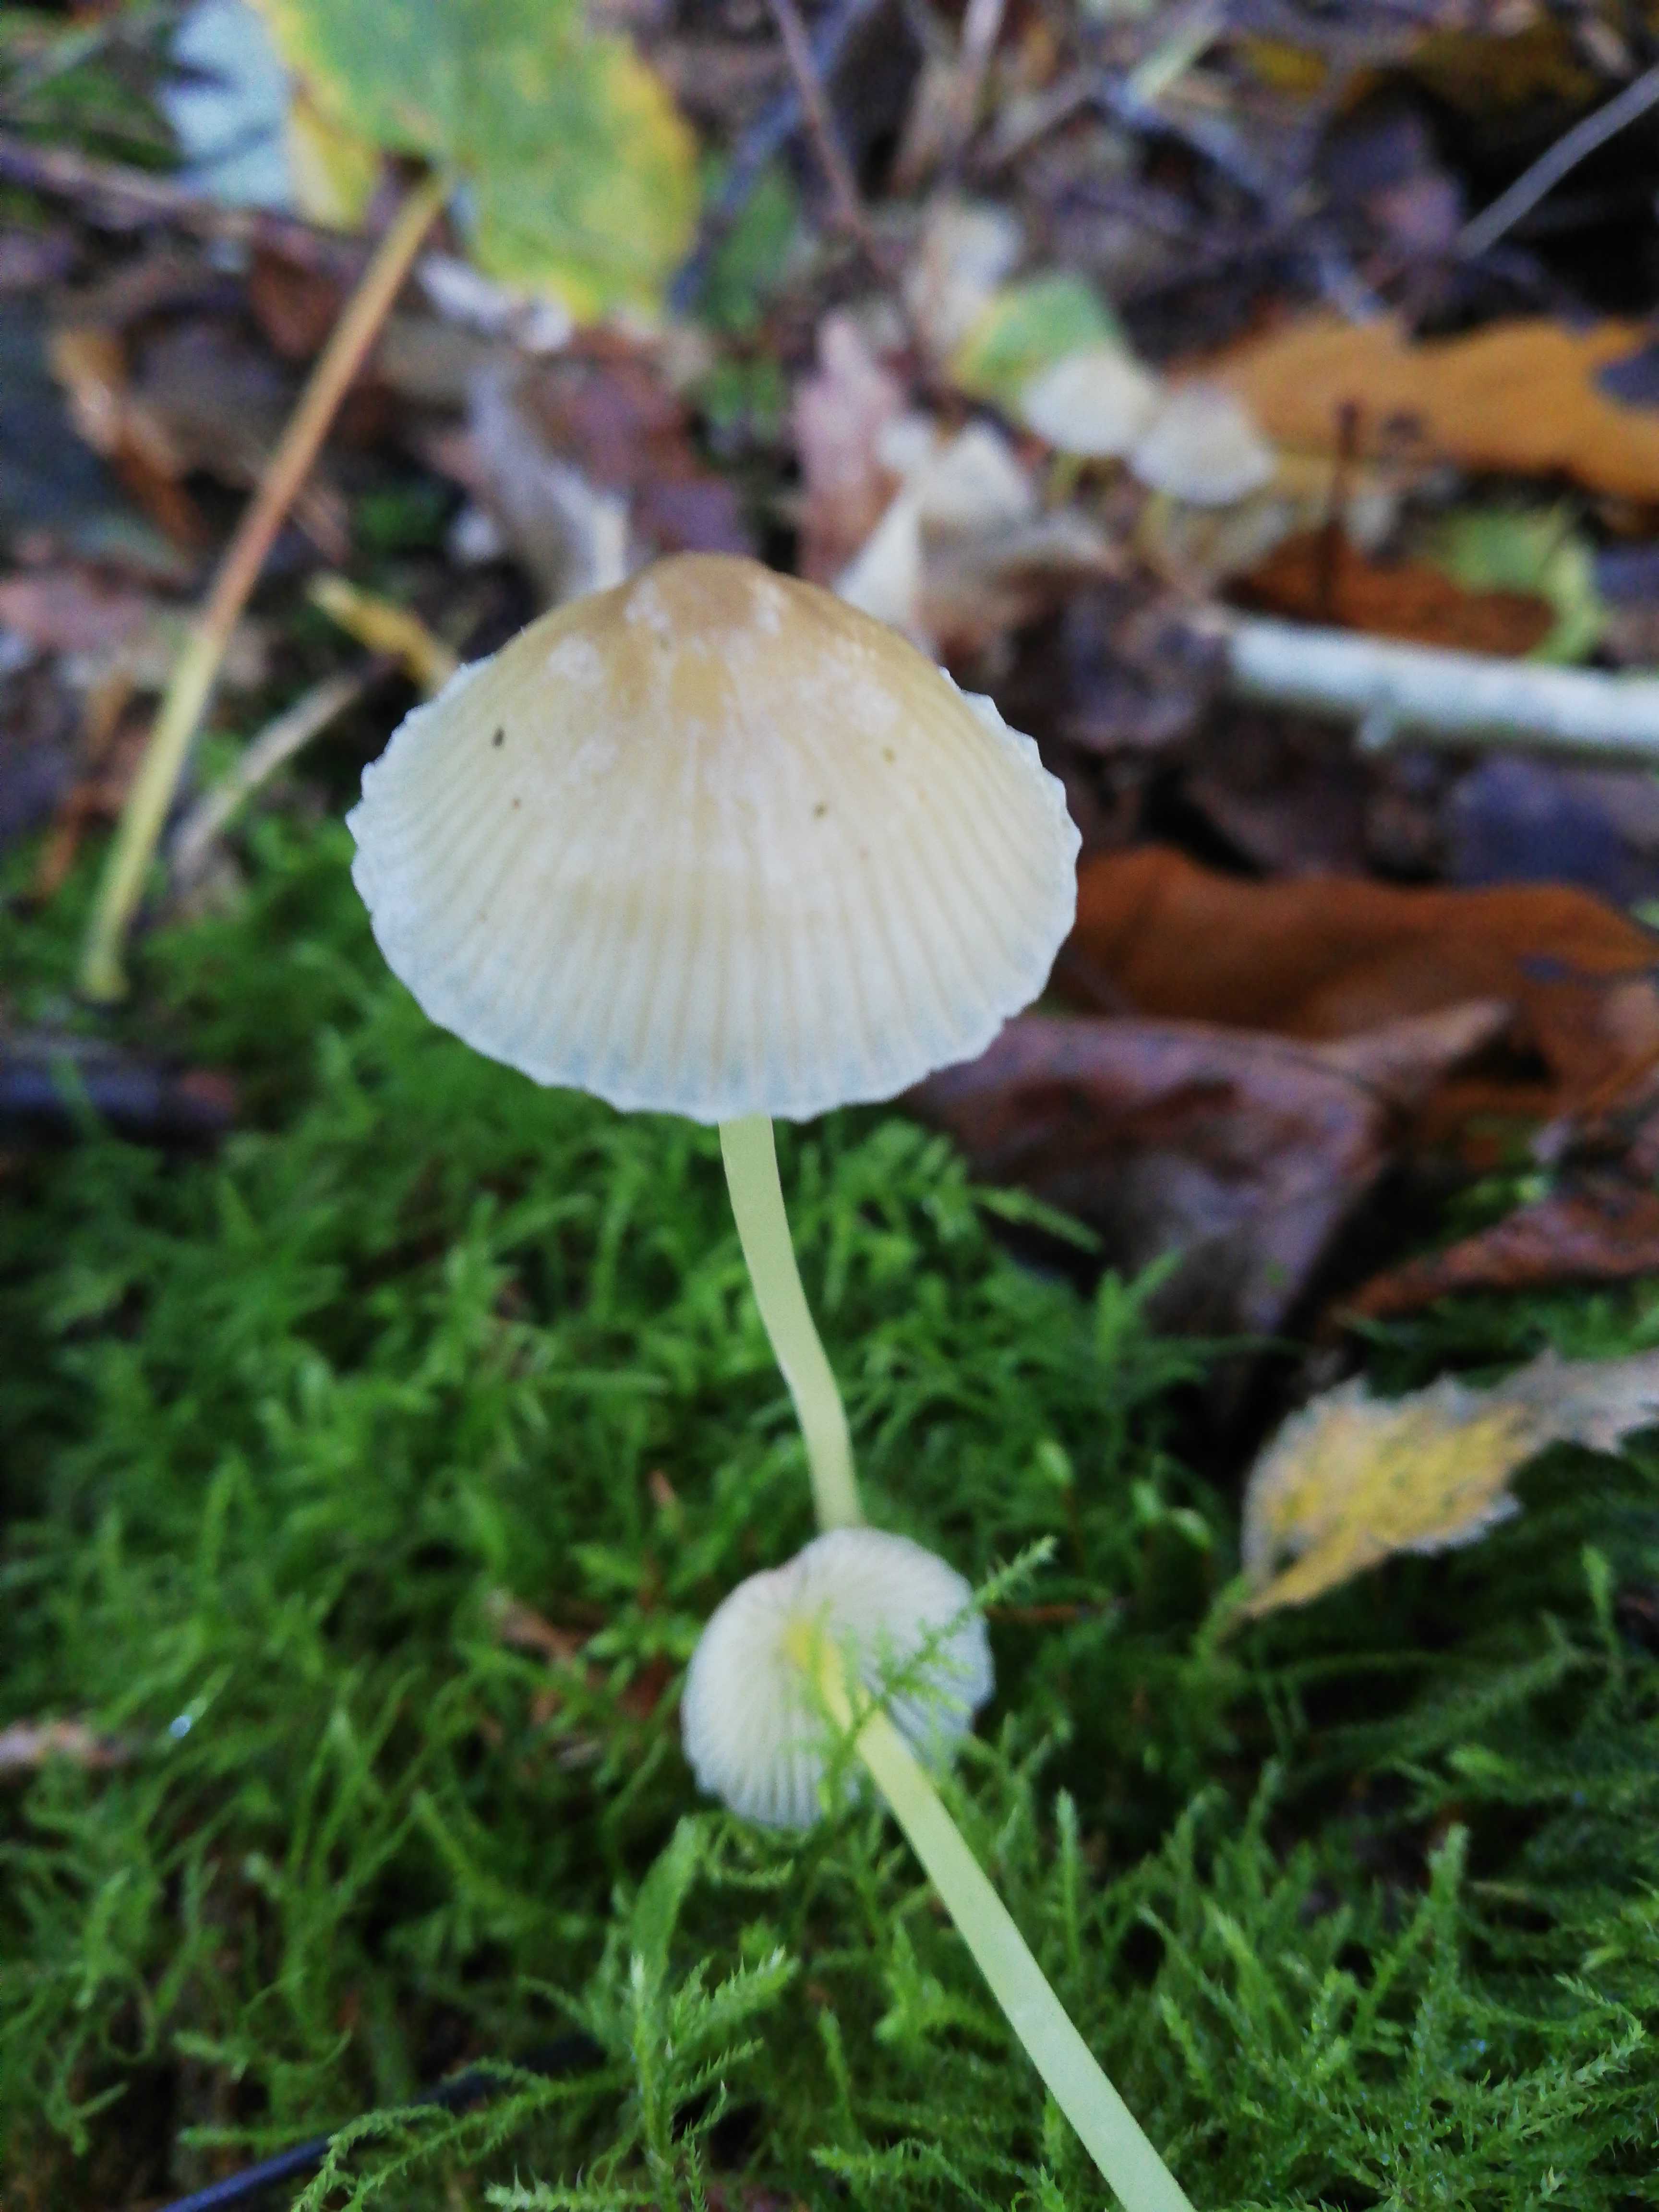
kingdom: Fungi
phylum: Basidiomycota
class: Agaricomycetes
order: Agaricales
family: Mycenaceae
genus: Mycena
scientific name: Mycena epipterygia
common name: gulstokket huesvamp
